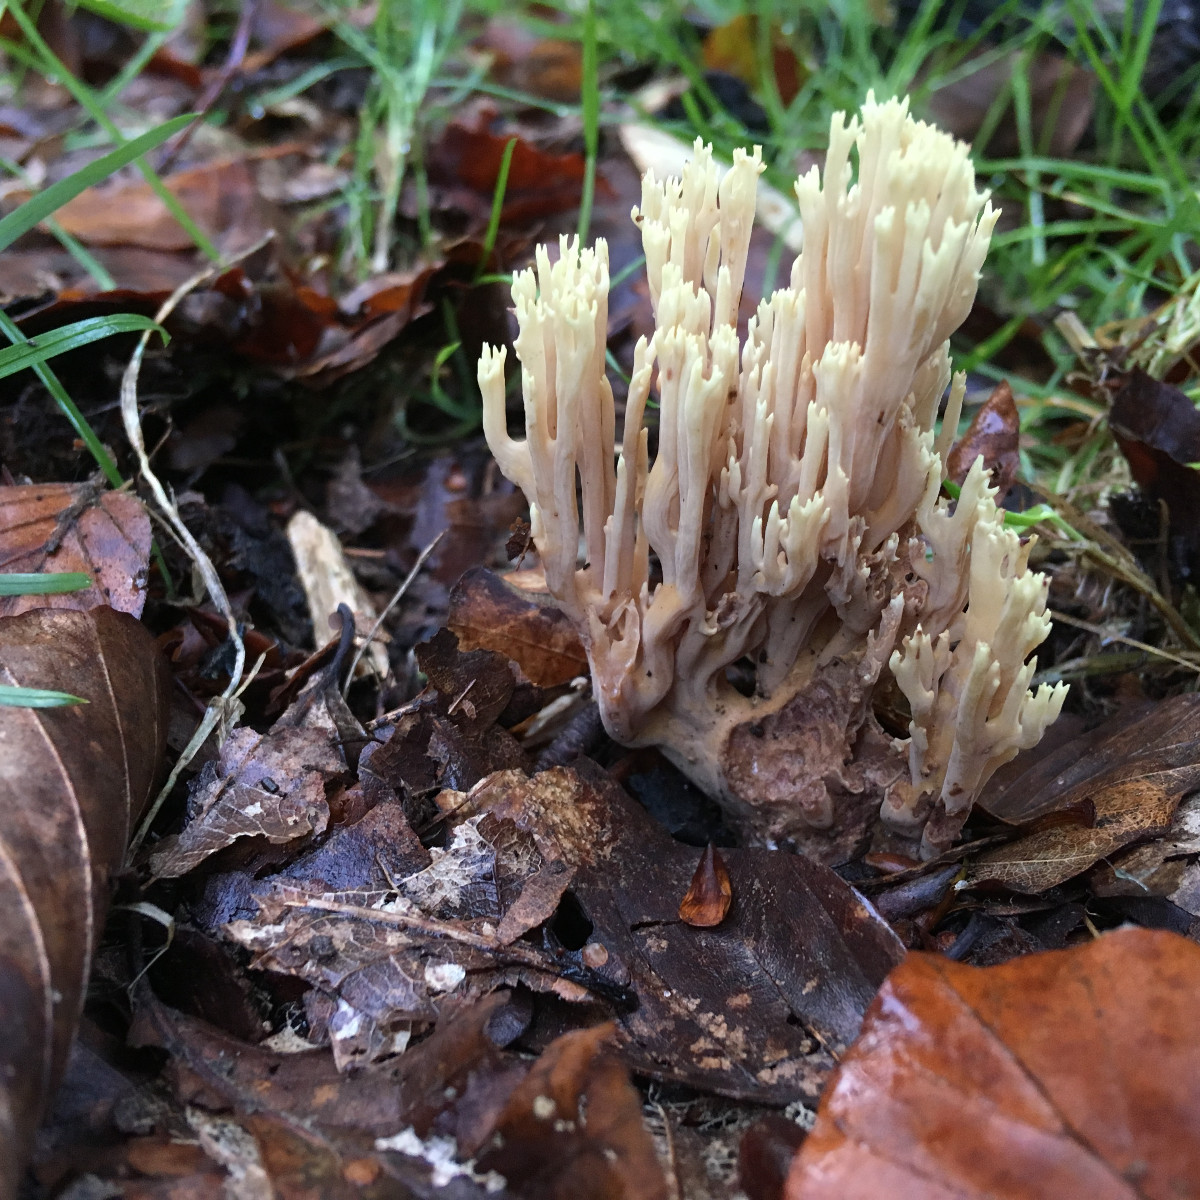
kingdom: Fungi
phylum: Basidiomycota
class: Agaricomycetes
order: Gomphales
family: Gomphaceae
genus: Ramaria
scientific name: Ramaria stricta
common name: rank koralsvamp
